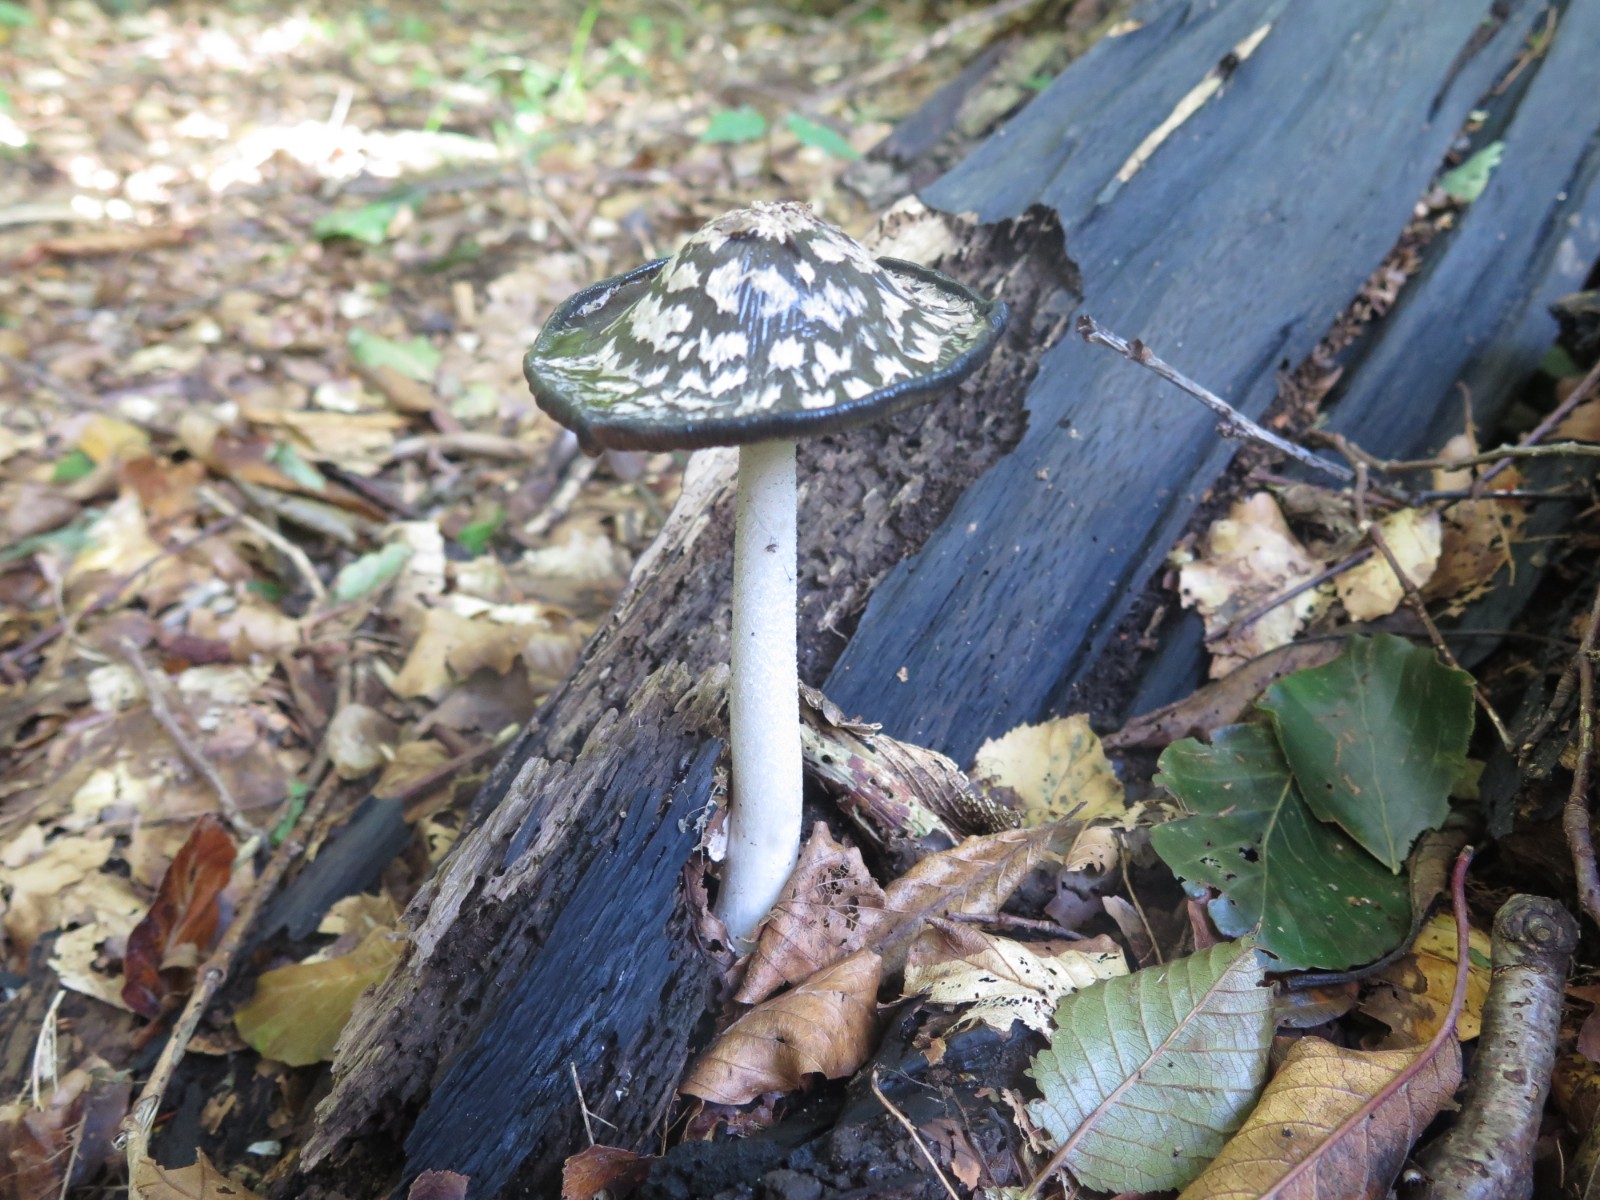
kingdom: Fungi
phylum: Basidiomycota
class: Agaricomycetes
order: Agaricales
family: Psathyrellaceae
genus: Coprinopsis
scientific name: Coprinopsis picacea
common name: skade-blækhat
